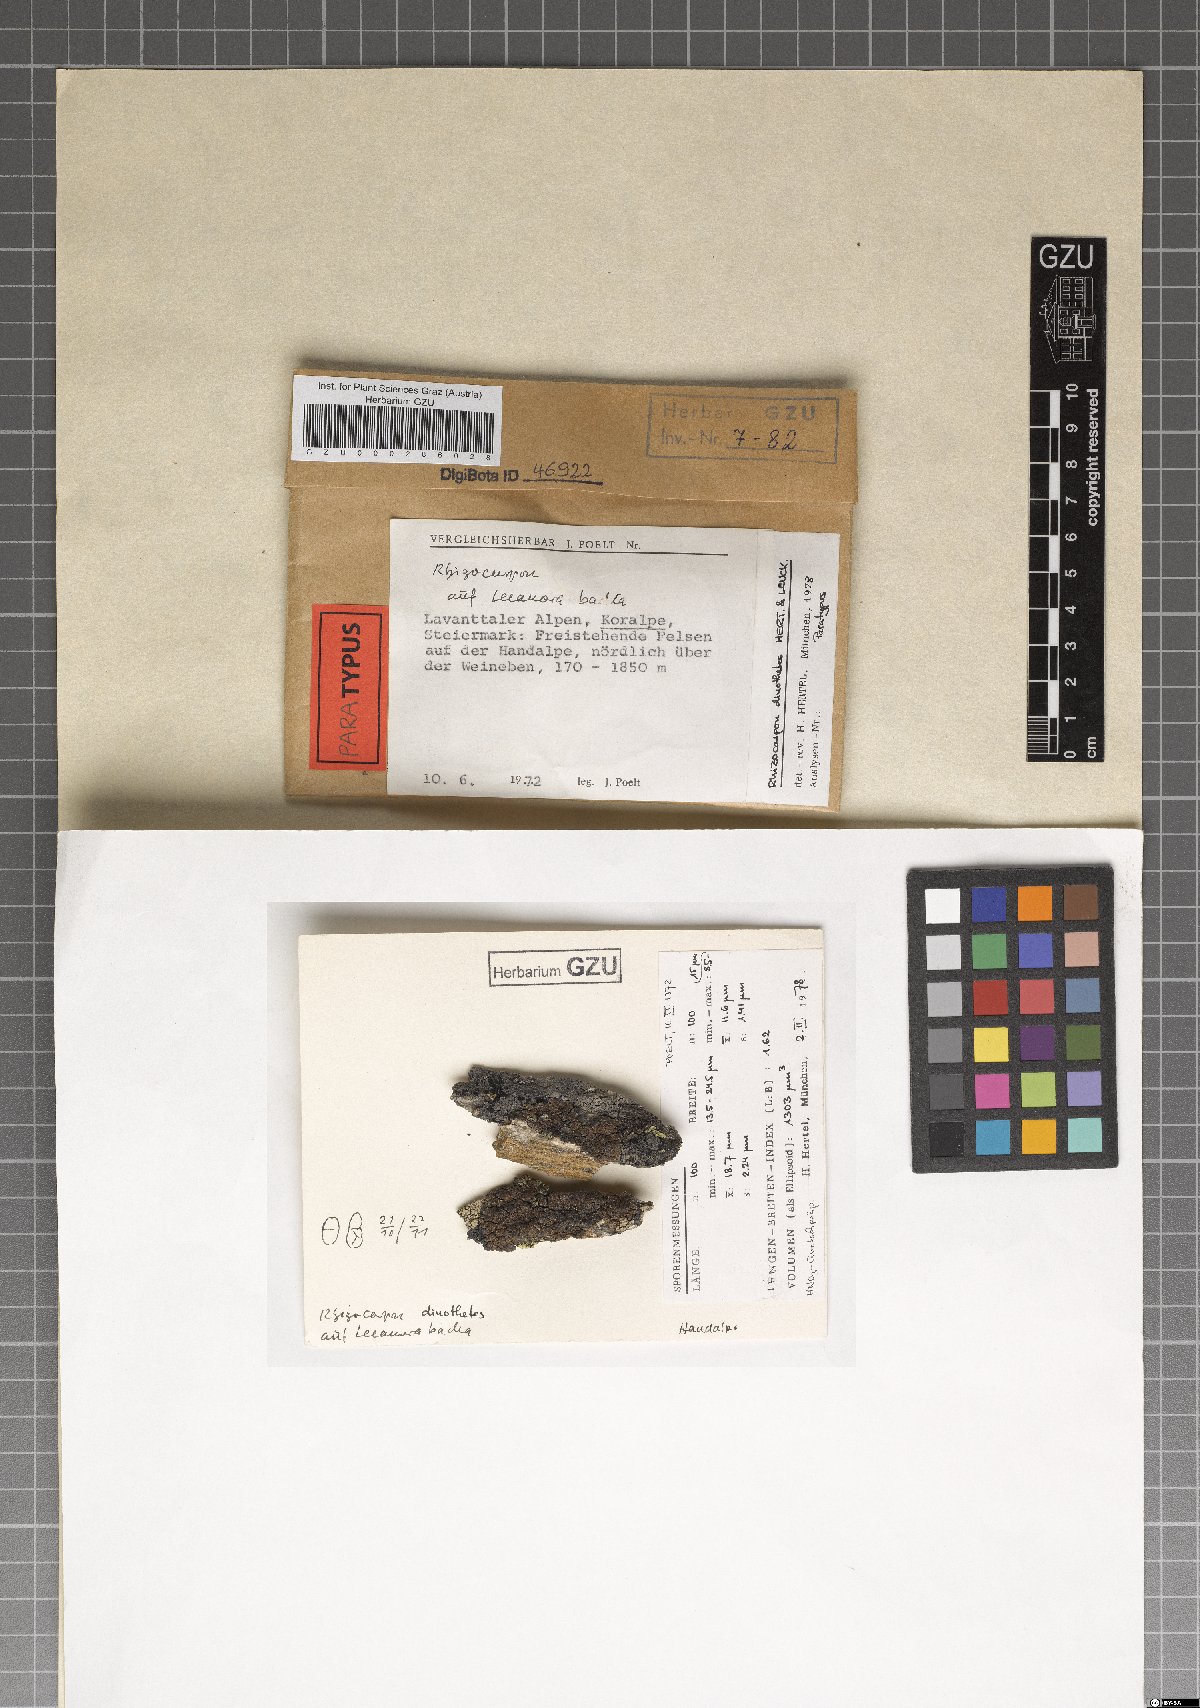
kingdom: Fungi
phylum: Ascomycota
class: Lecanoromycetes
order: Rhizocarpales
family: Rhizocarpaceae
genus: Rhizocarpon
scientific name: Rhizocarpon dinothetes
